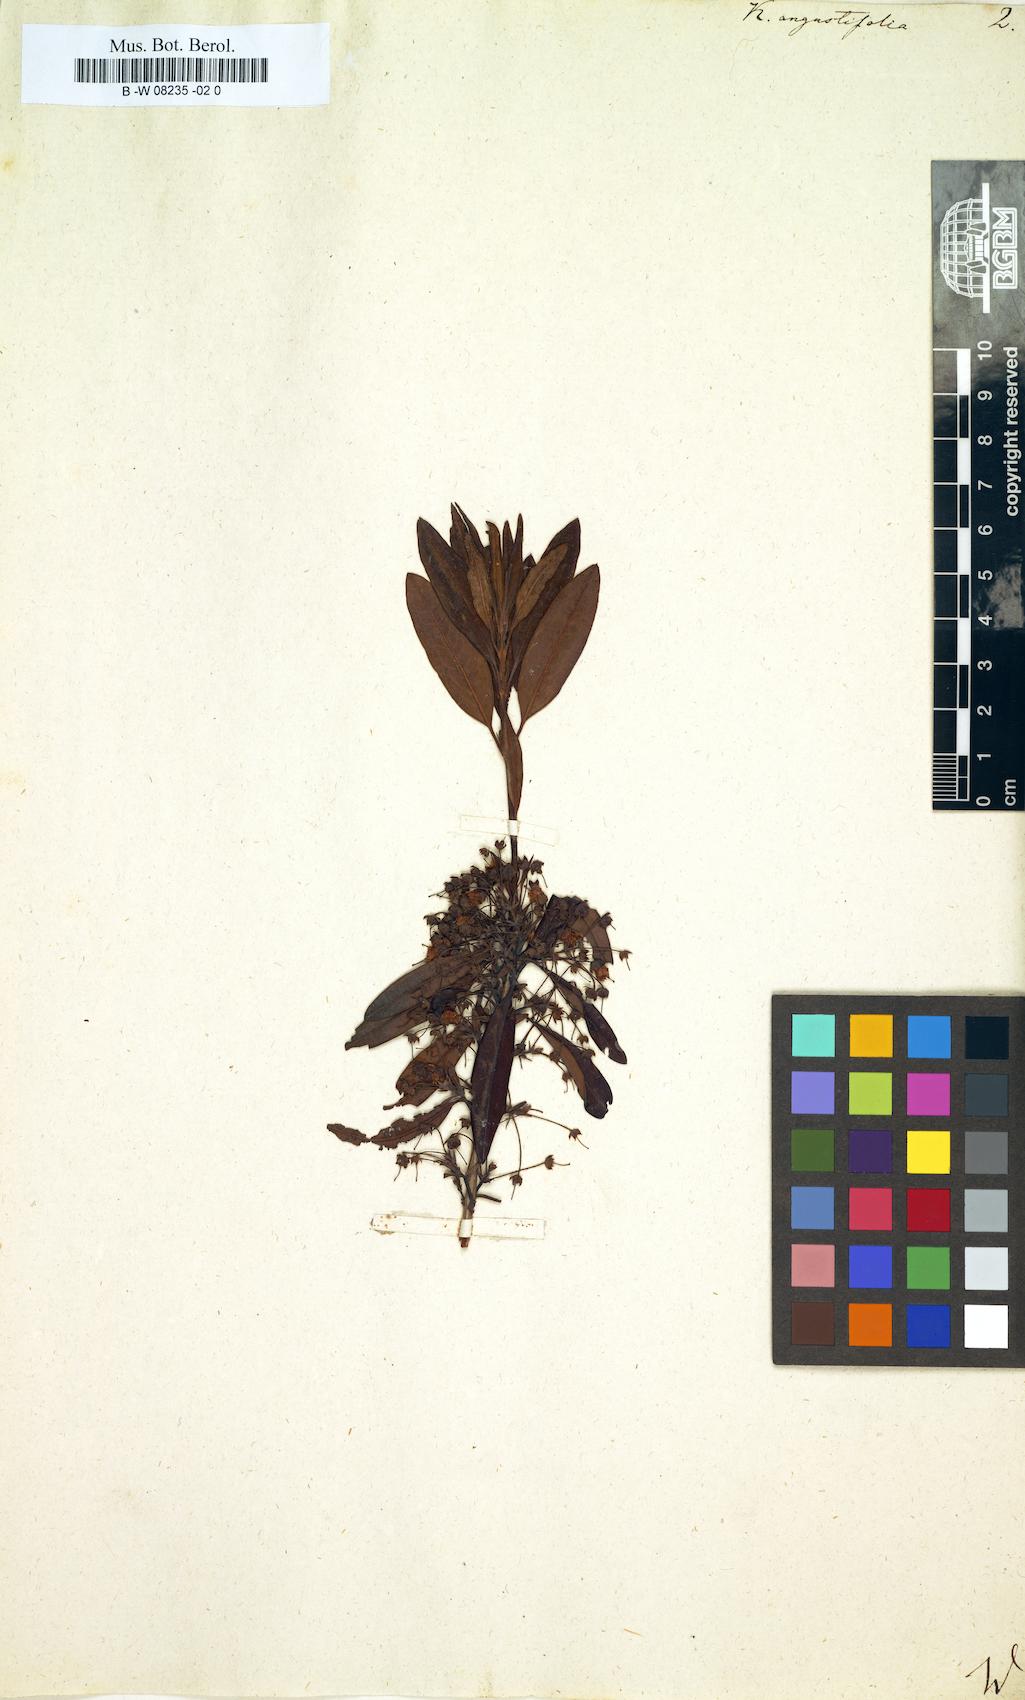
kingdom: Plantae
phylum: Tracheophyta
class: Magnoliopsida
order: Ericales
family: Ericaceae
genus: Kalmia
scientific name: Kalmia angustifolia
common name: Sheep-laurel
